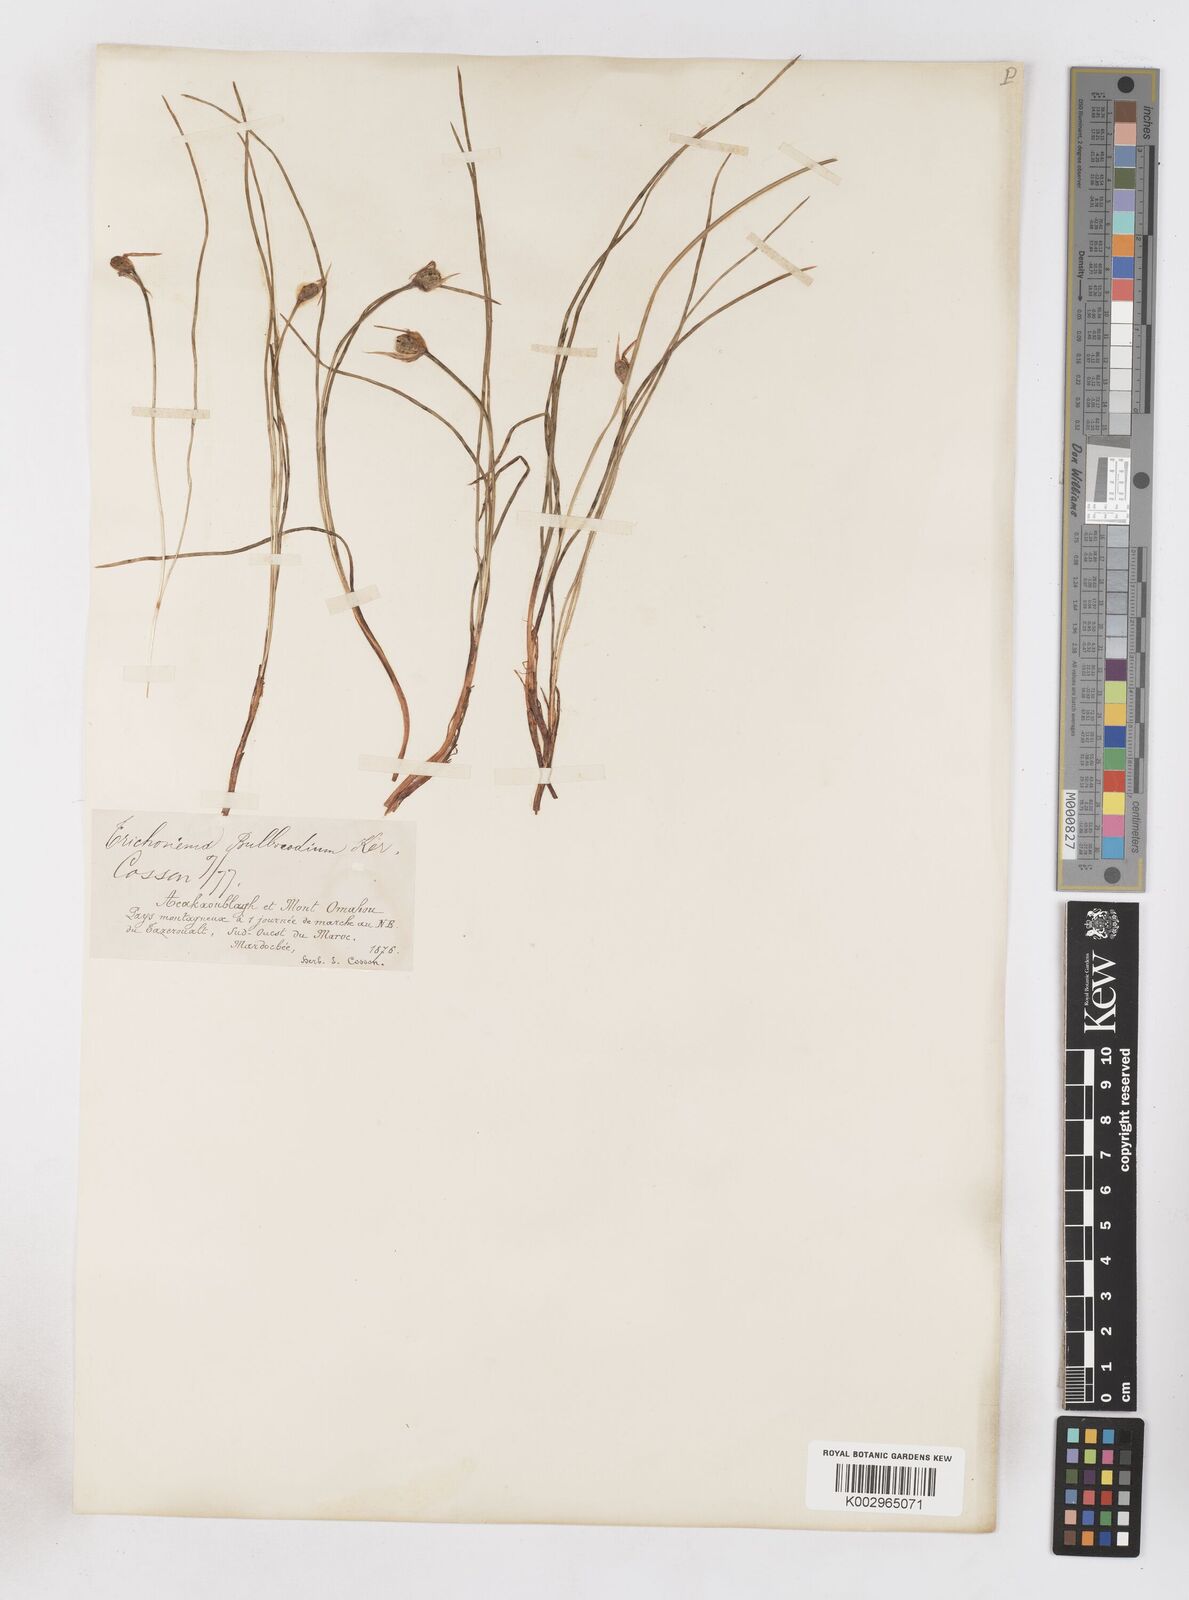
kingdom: Plantae
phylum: Tracheophyta
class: Liliopsida
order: Asparagales
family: Iridaceae
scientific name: Iridaceae
